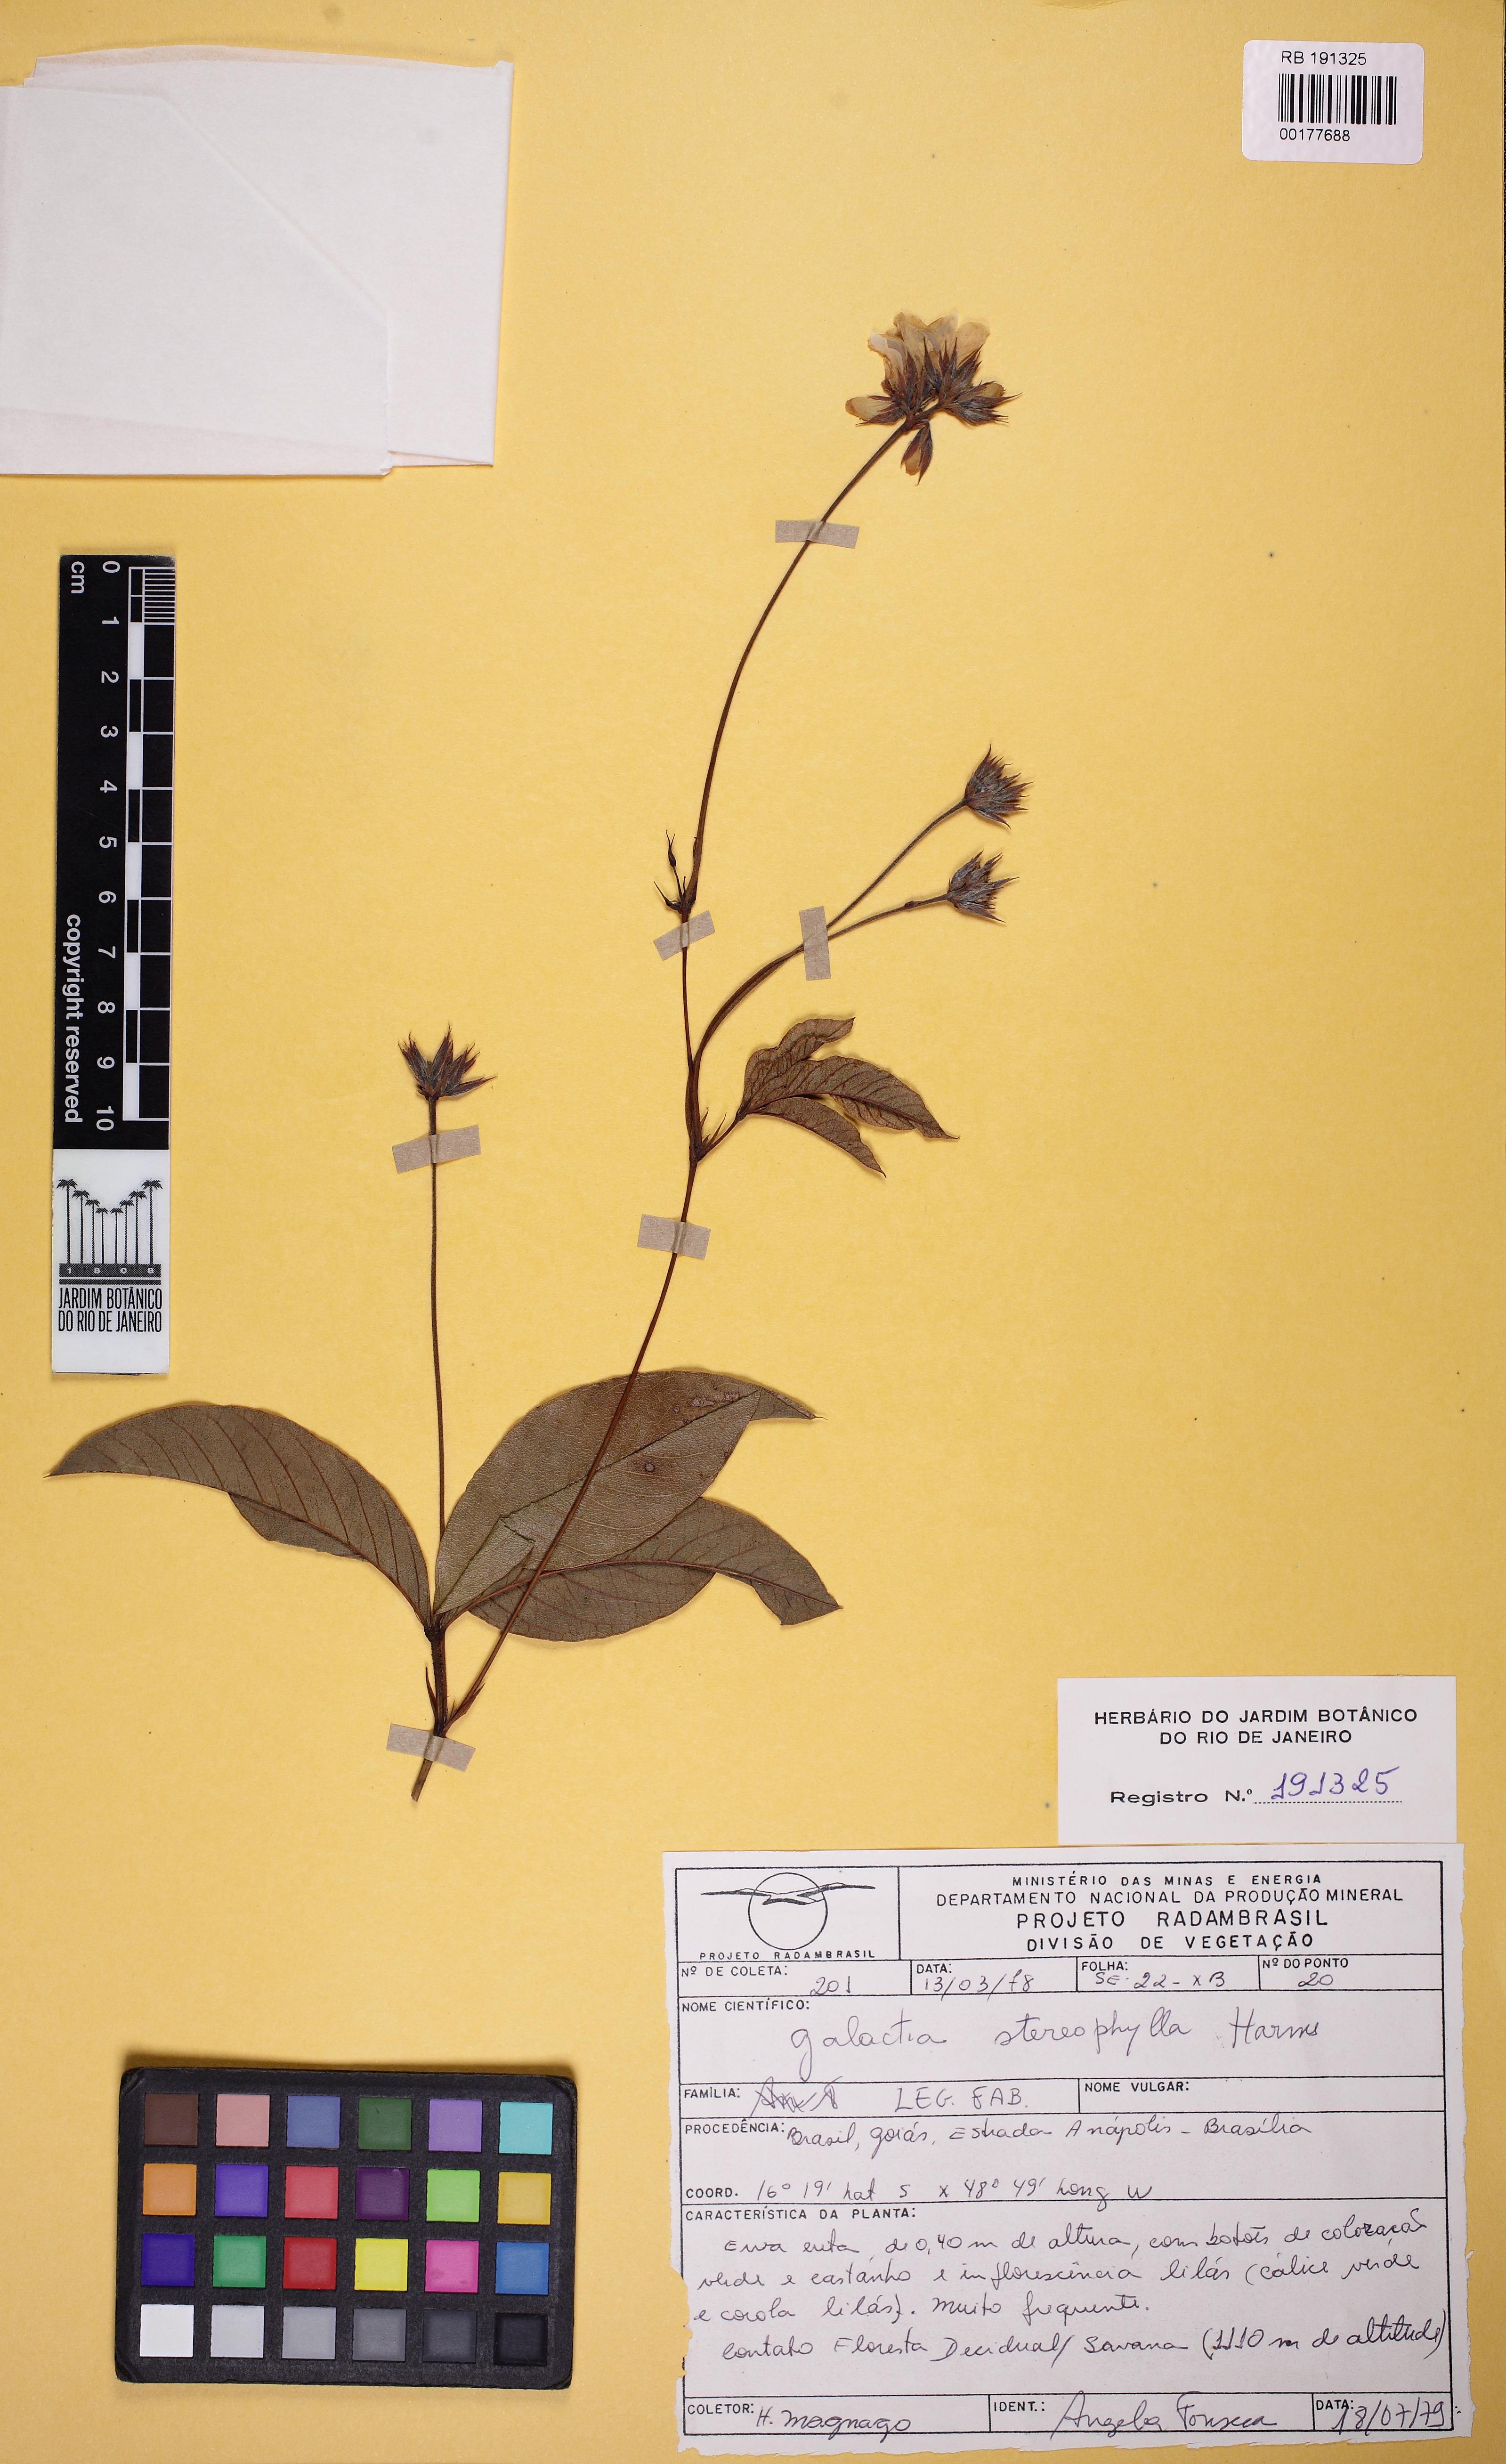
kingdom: Plantae
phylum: Tracheophyta
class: Magnoliopsida
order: Fabales
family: Fabaceae
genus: Betencourtia
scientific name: Betencourtia stereophylla
